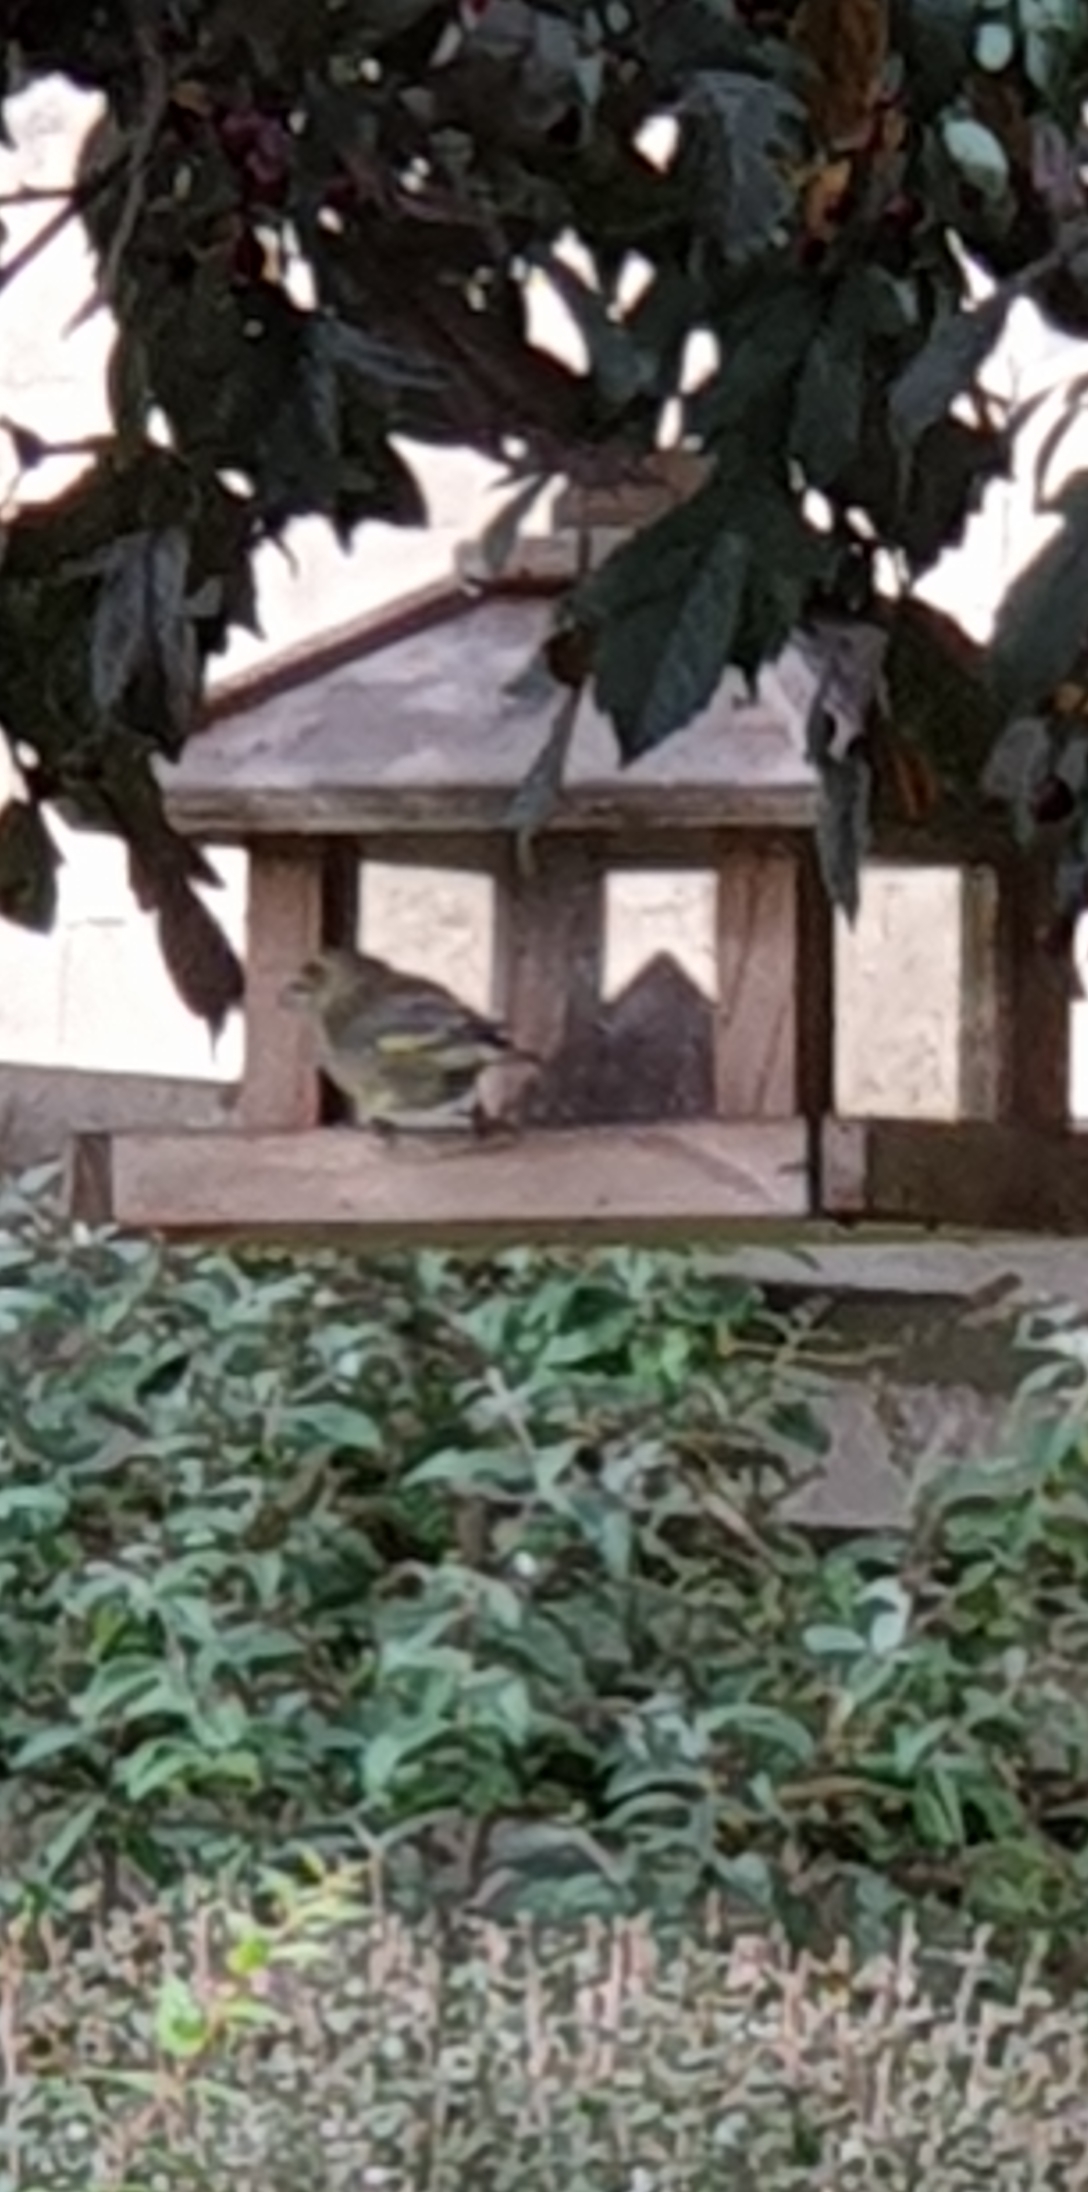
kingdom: Plantae
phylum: Tracheophyta
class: Liliopsida
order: Poales
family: Poaceae
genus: Chloris
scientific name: Chloris chloris
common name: Grønirisk
